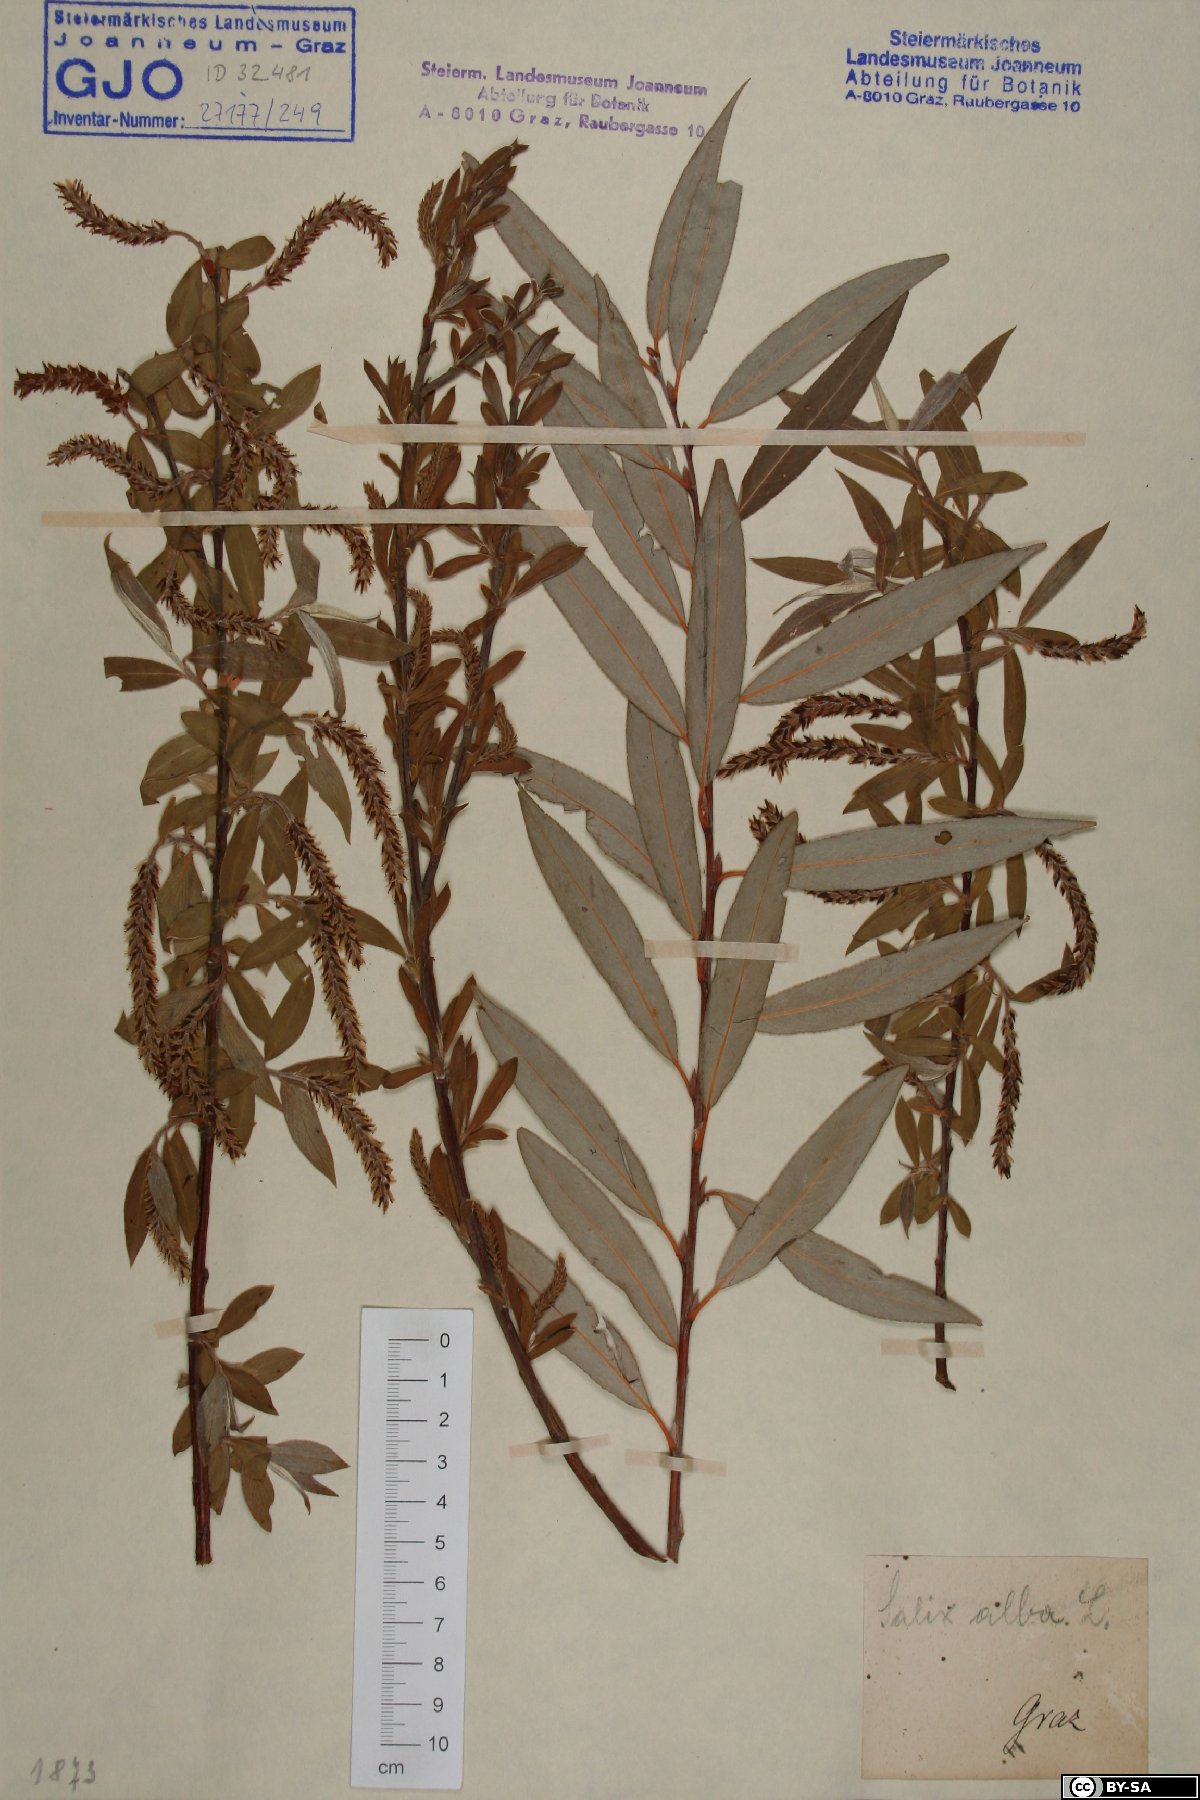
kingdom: Plantae
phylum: Tracheophyta
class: Magnoliopsida
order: Malpighiales
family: Salicaceae
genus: Salix
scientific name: Salix alba
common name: White willow
